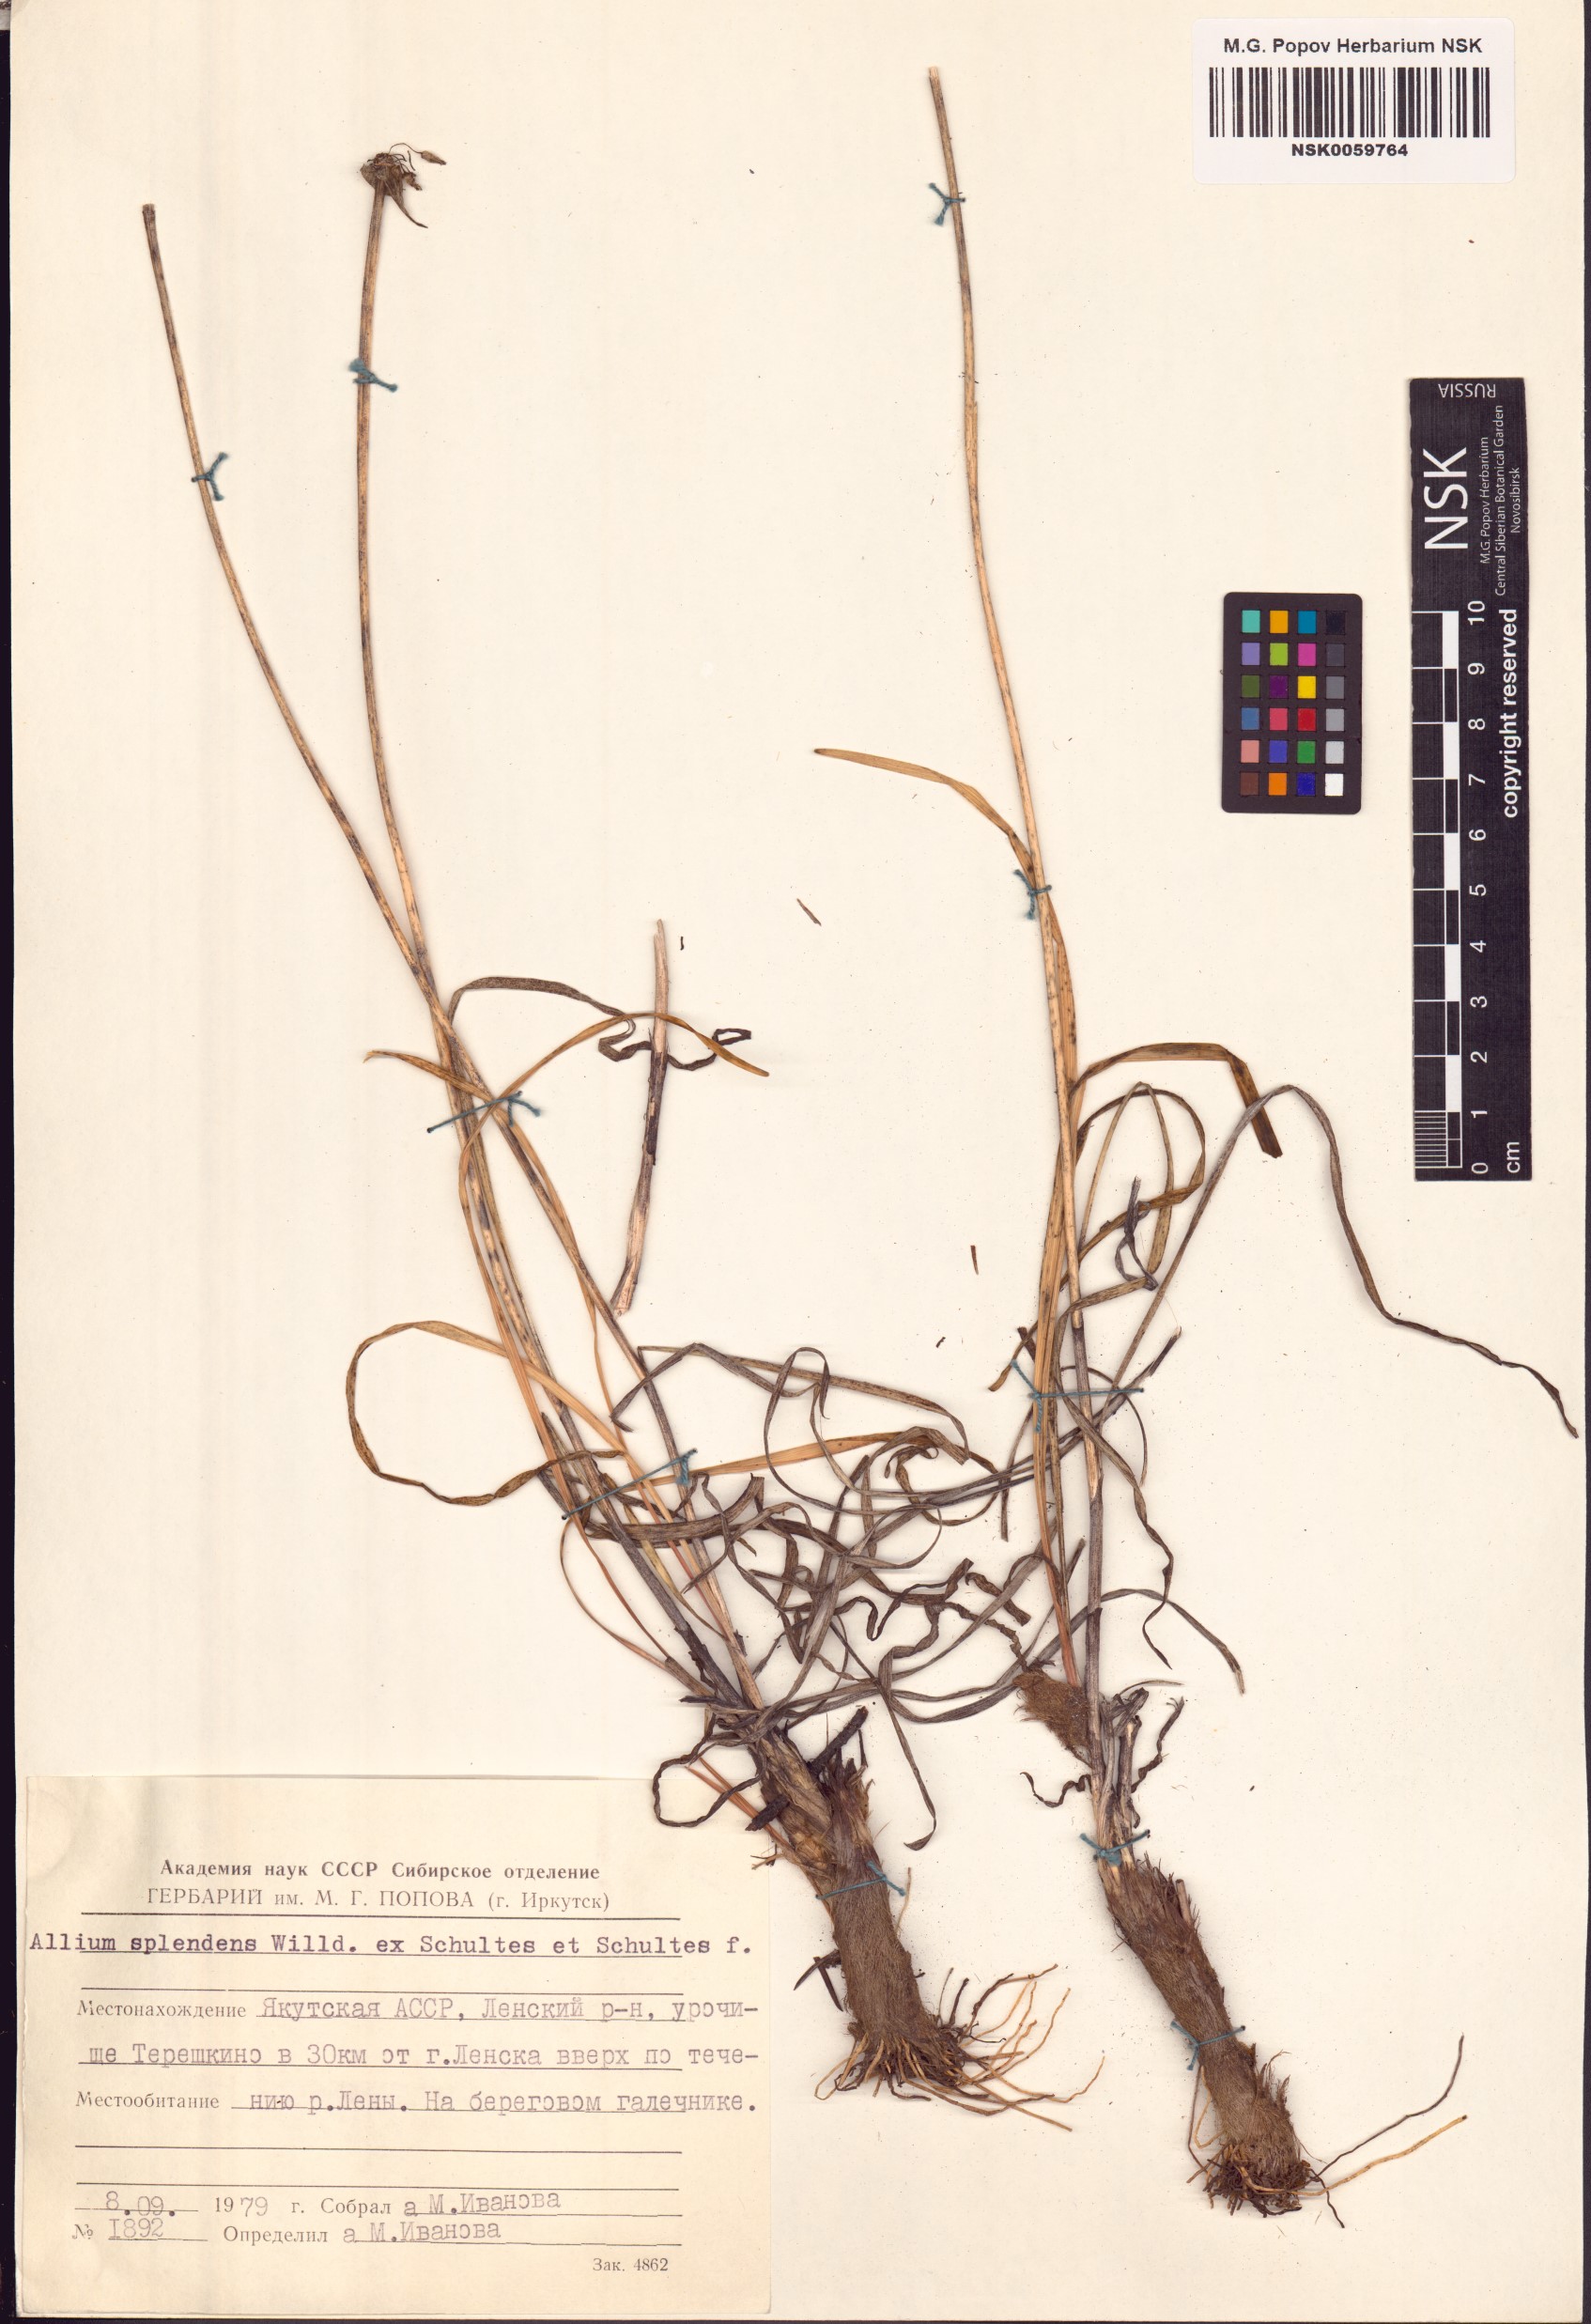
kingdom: Plantae
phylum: Tracheophyta
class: Liliopsida
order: Asparagales
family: Amaryllidaceae
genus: Allium
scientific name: Allium splendens
